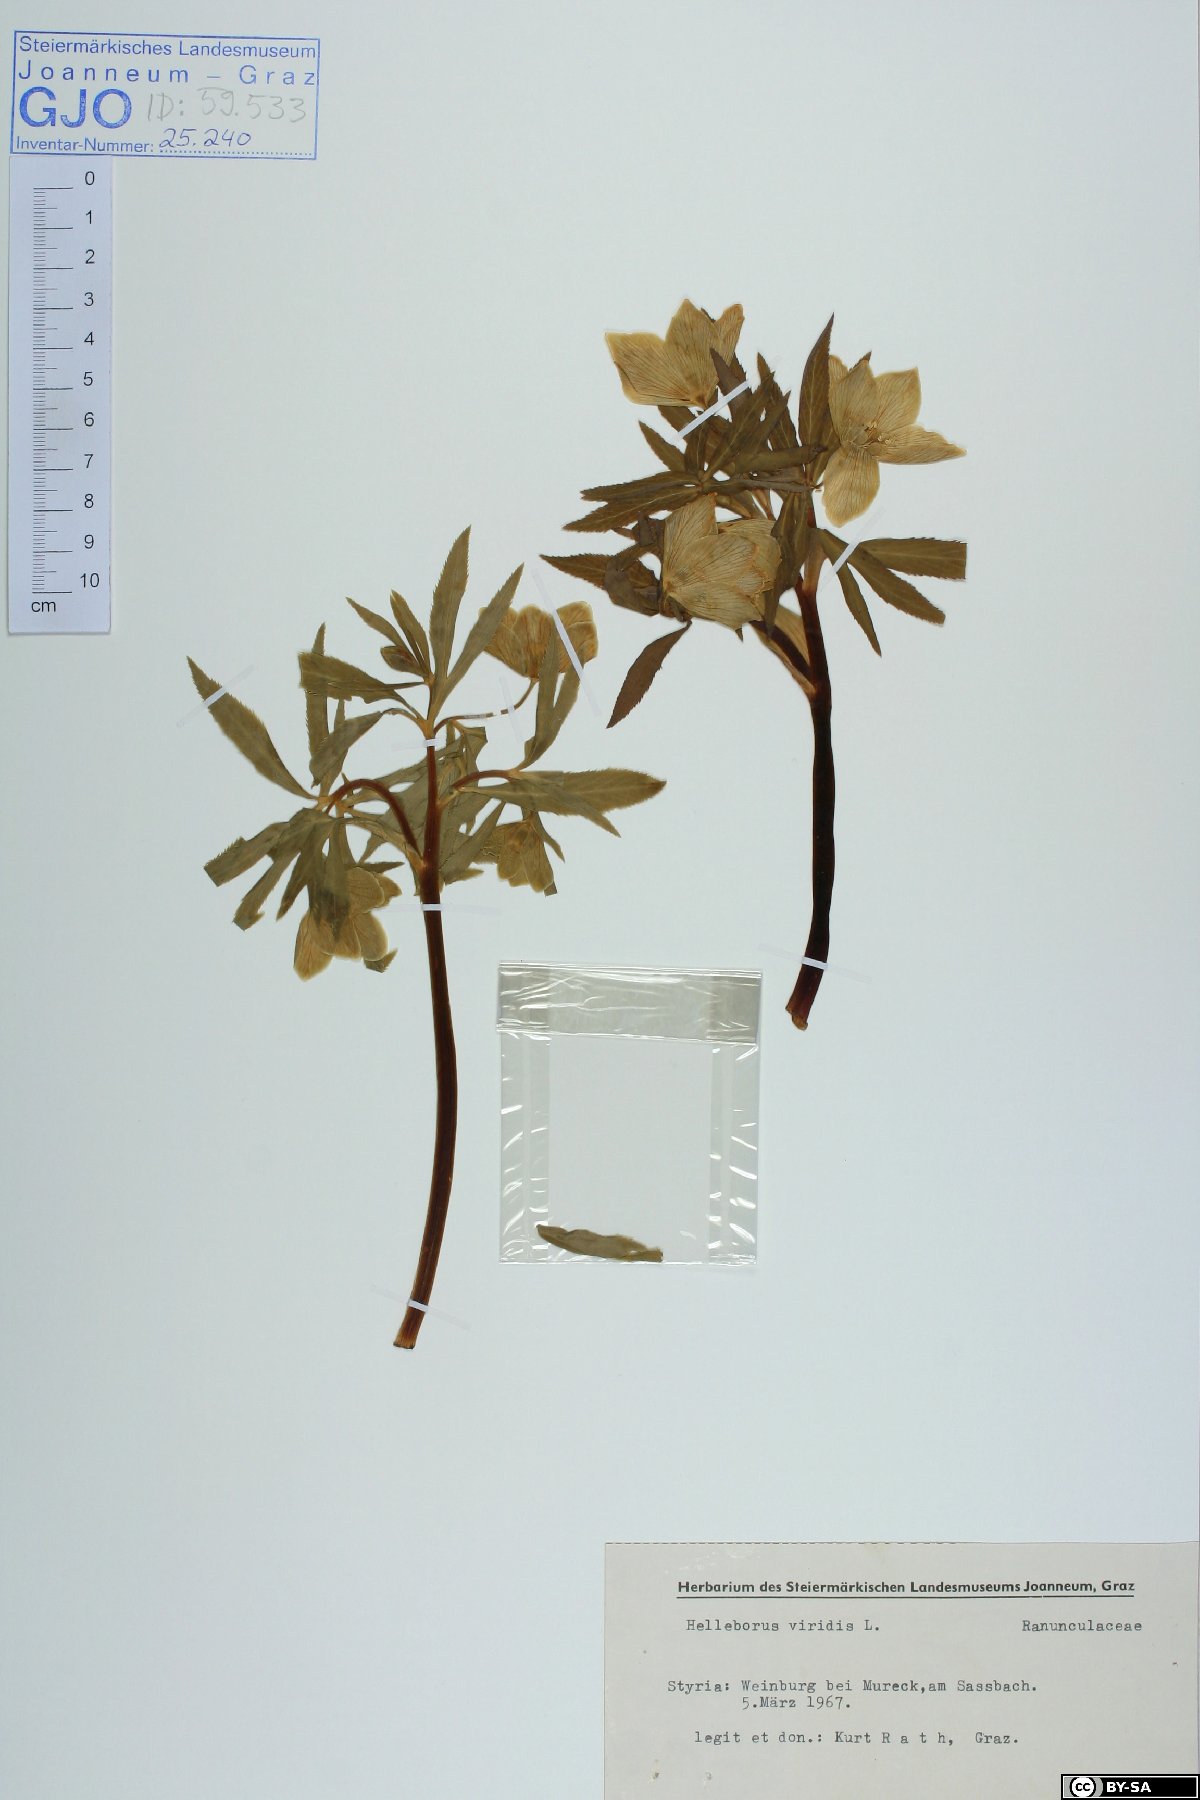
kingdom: Plantae
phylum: Tracheophyta
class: Magnoliopsida
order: Ranunculales
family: Ranunculaceae
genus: Helleborus
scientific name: Helleborus dumetorum
